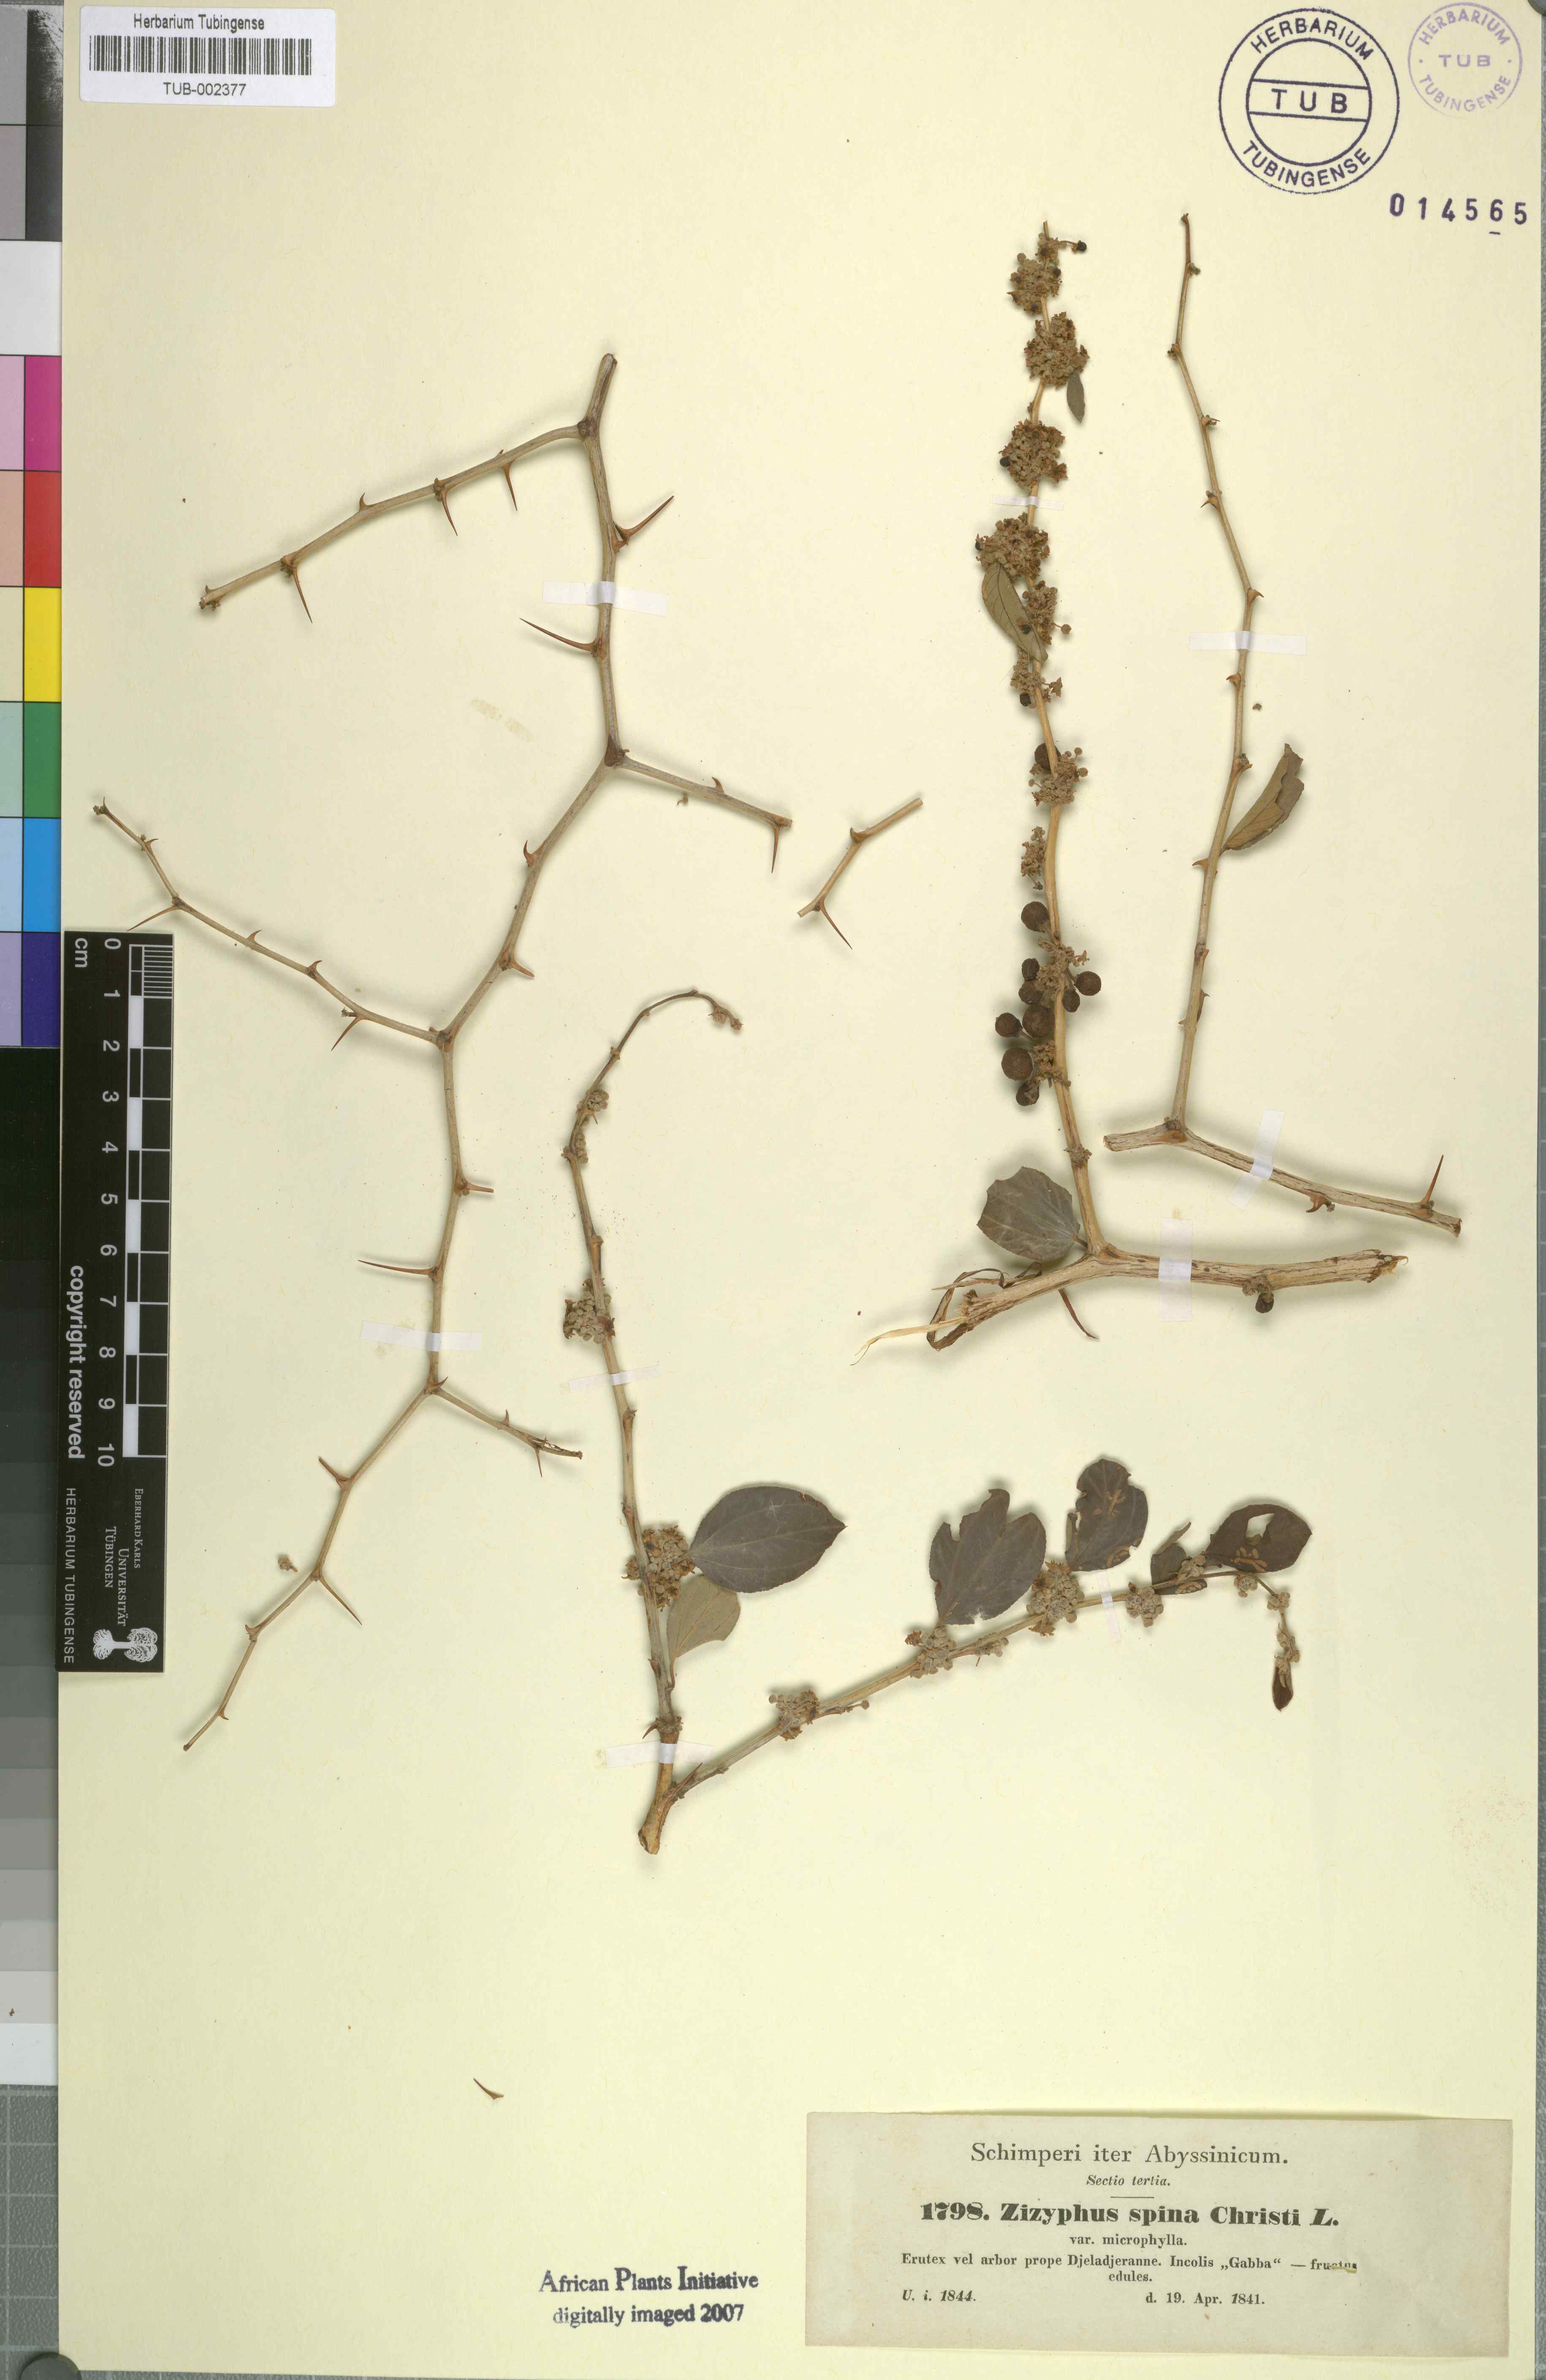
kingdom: Plantae
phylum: Tracheophyta
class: Magnoliopsida
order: Rosales
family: Rhamnaceae
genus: Ziziphus
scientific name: Ziziphus spina-christi
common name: Syrian christ-thorn
